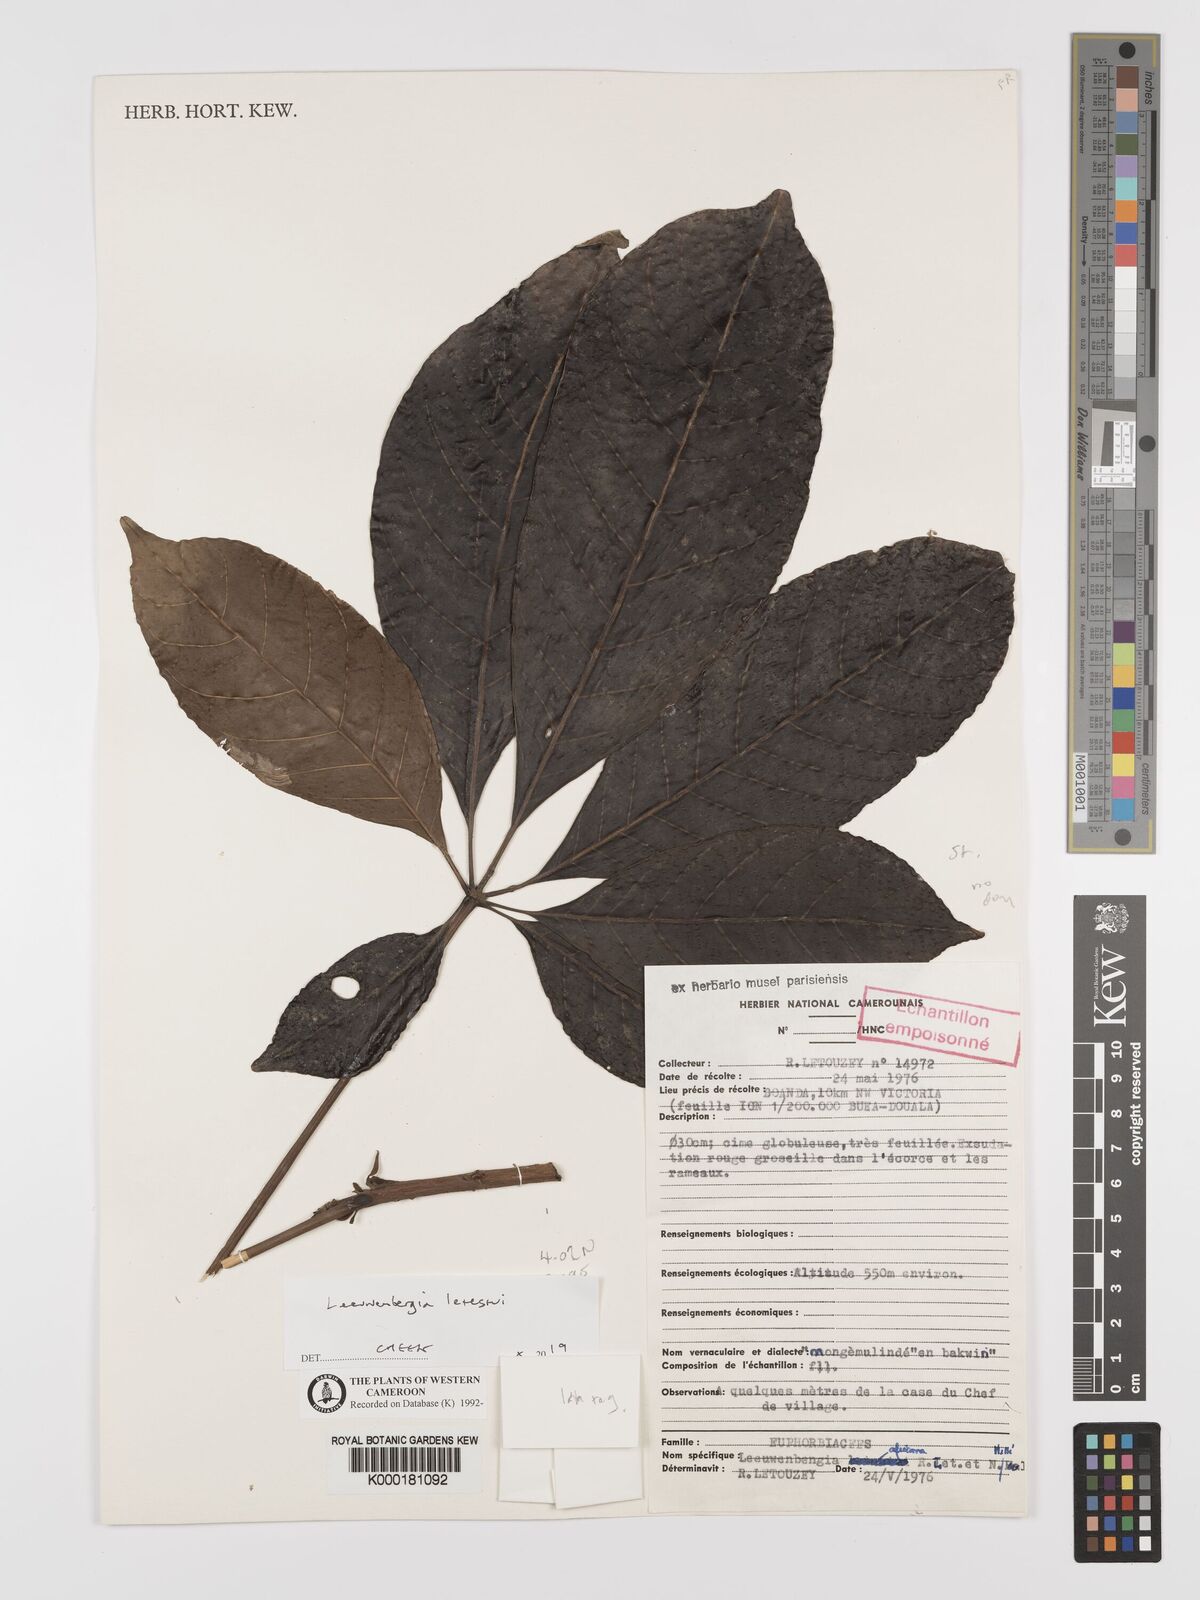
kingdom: Plantae
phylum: Tracheophyta
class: Magnoliopsida
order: Malpighiales
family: Euphorbiaceae
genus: Leeuwenbergia
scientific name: Leeuwenbergia
